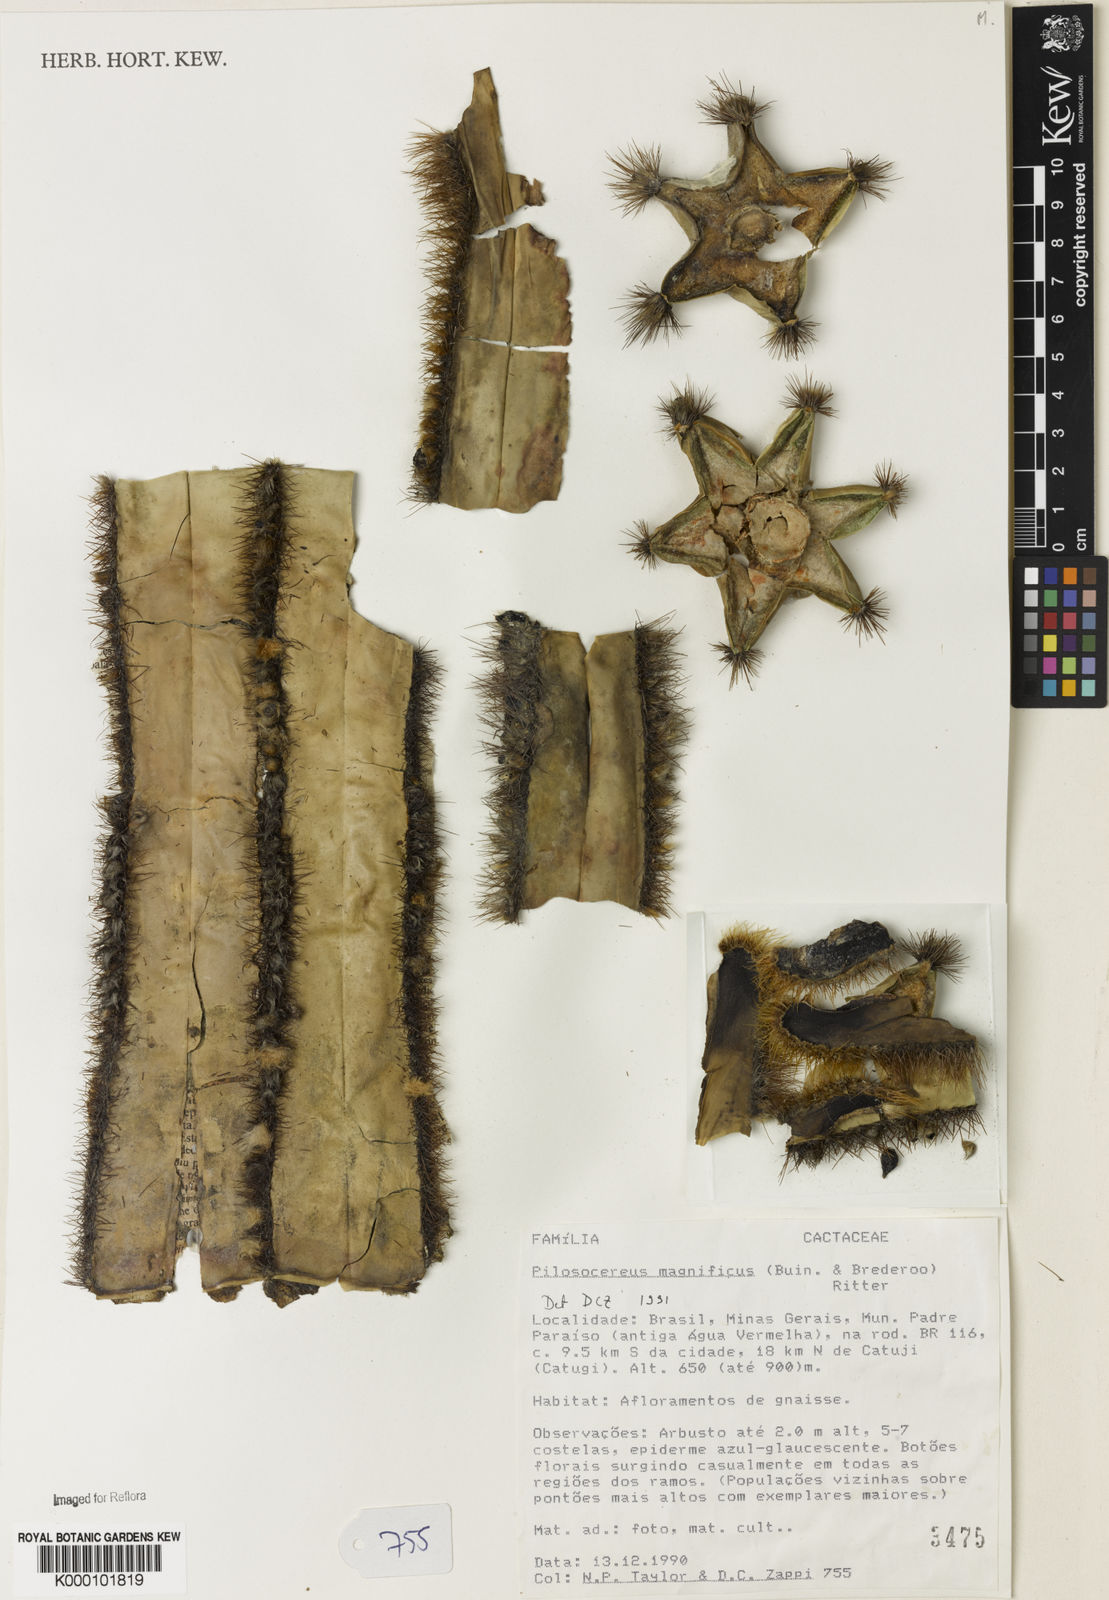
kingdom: Plantae
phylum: Tracheophyta
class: Magnoliopsida
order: Caryophyllales
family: Cactaceae
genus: Pilosocereus
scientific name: Pilosocereus
